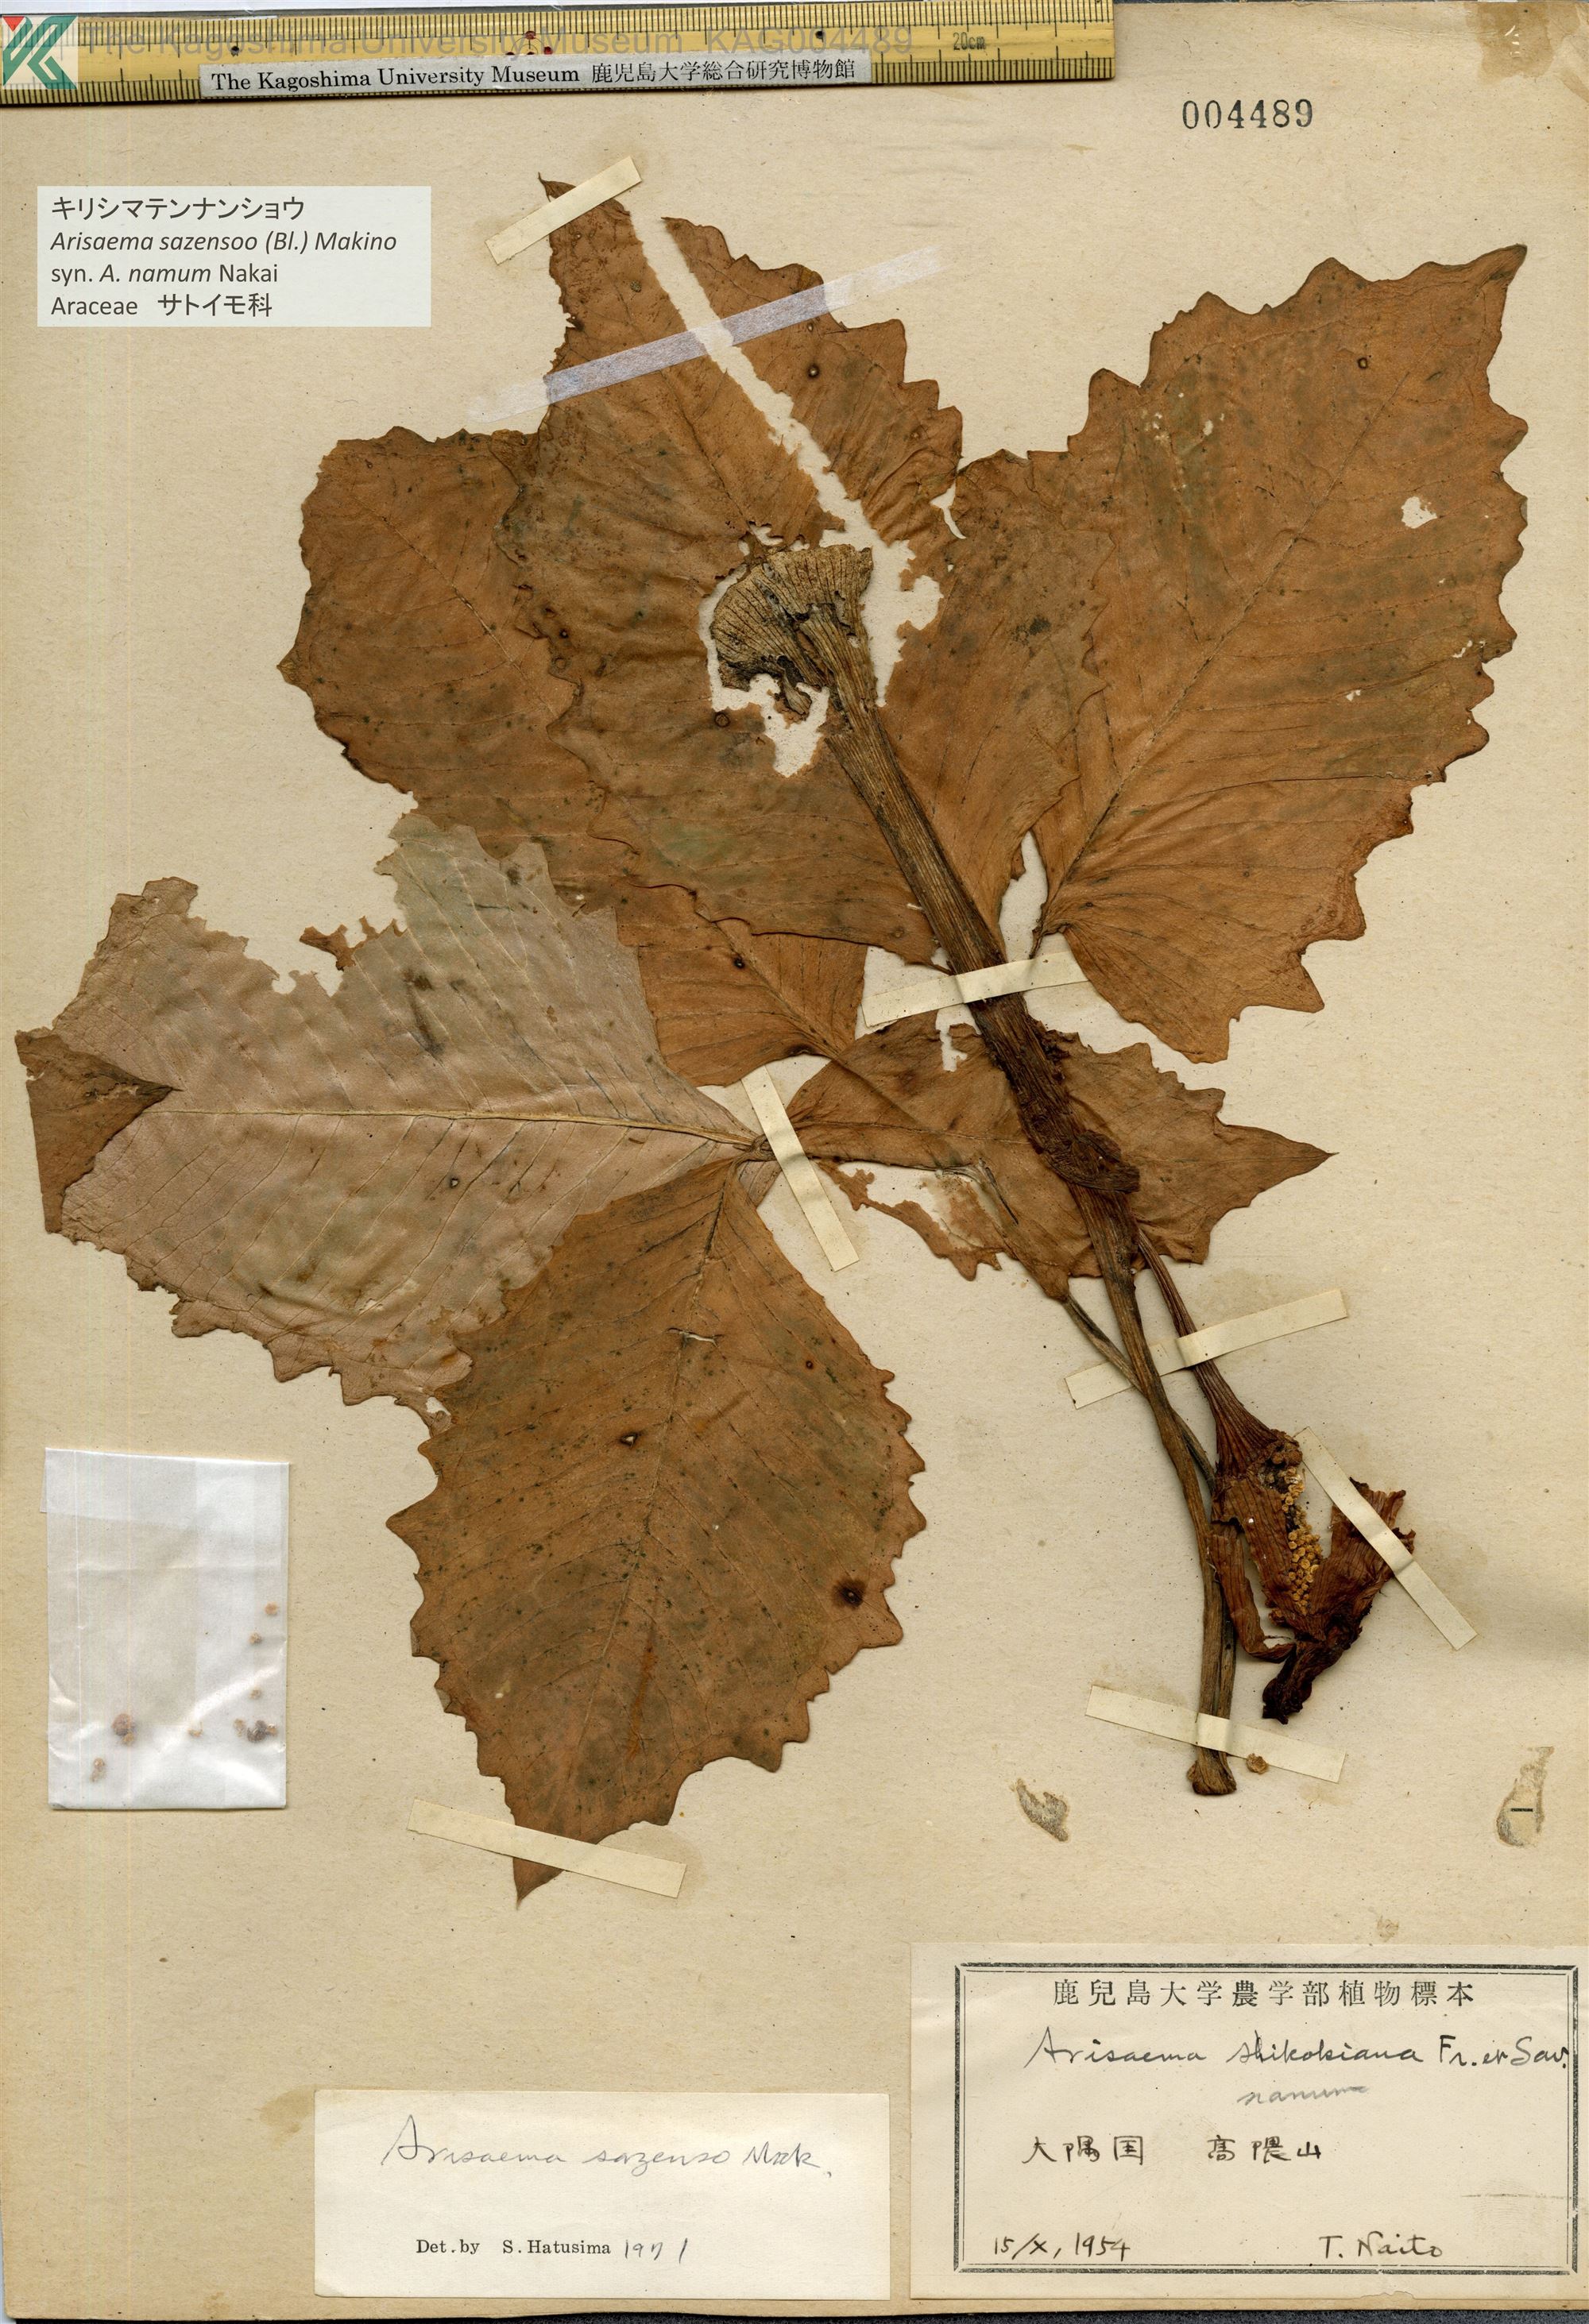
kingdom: Plantae
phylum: Tracheophyta
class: Liliopsida
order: Alismatales
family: Araceae
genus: Arisaema
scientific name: Arisaema sazensoo
